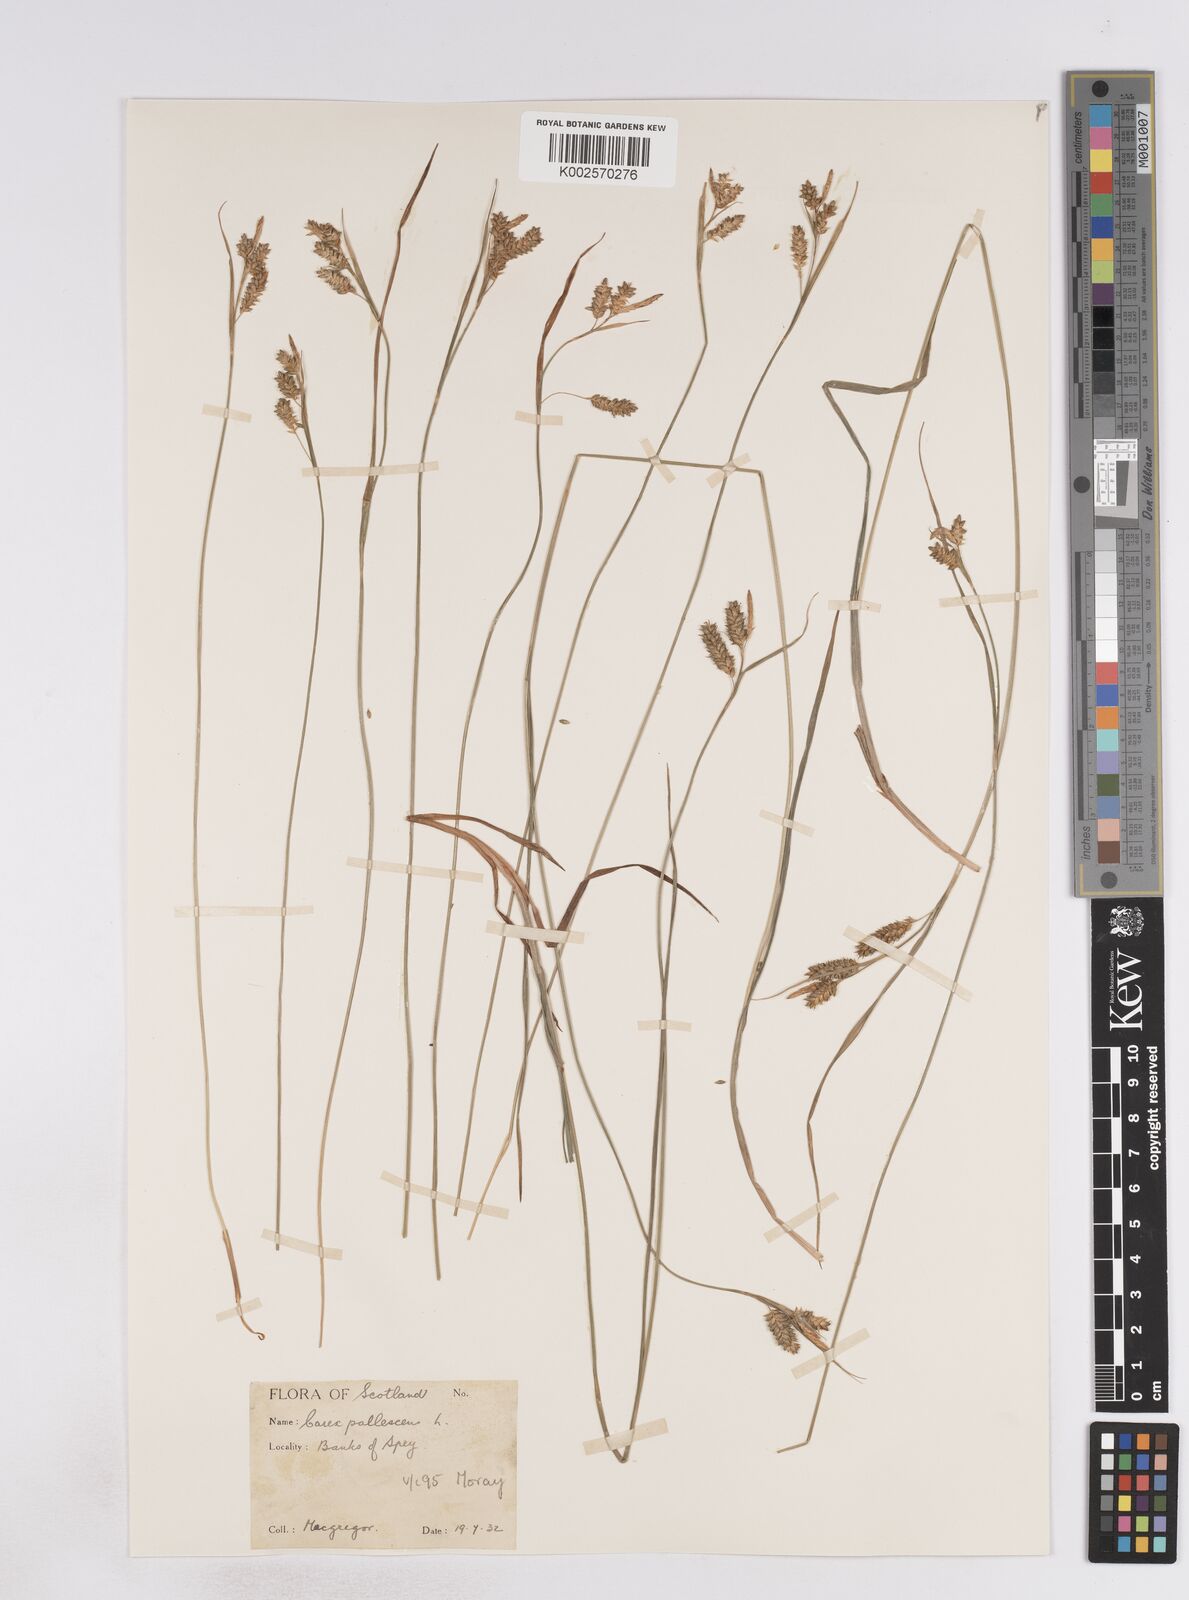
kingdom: Plantae
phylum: Tracheophyta
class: Liliopsida
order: Poales
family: Cyperaceae
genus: Carex
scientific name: Carex pallescens
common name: Pale sedge
